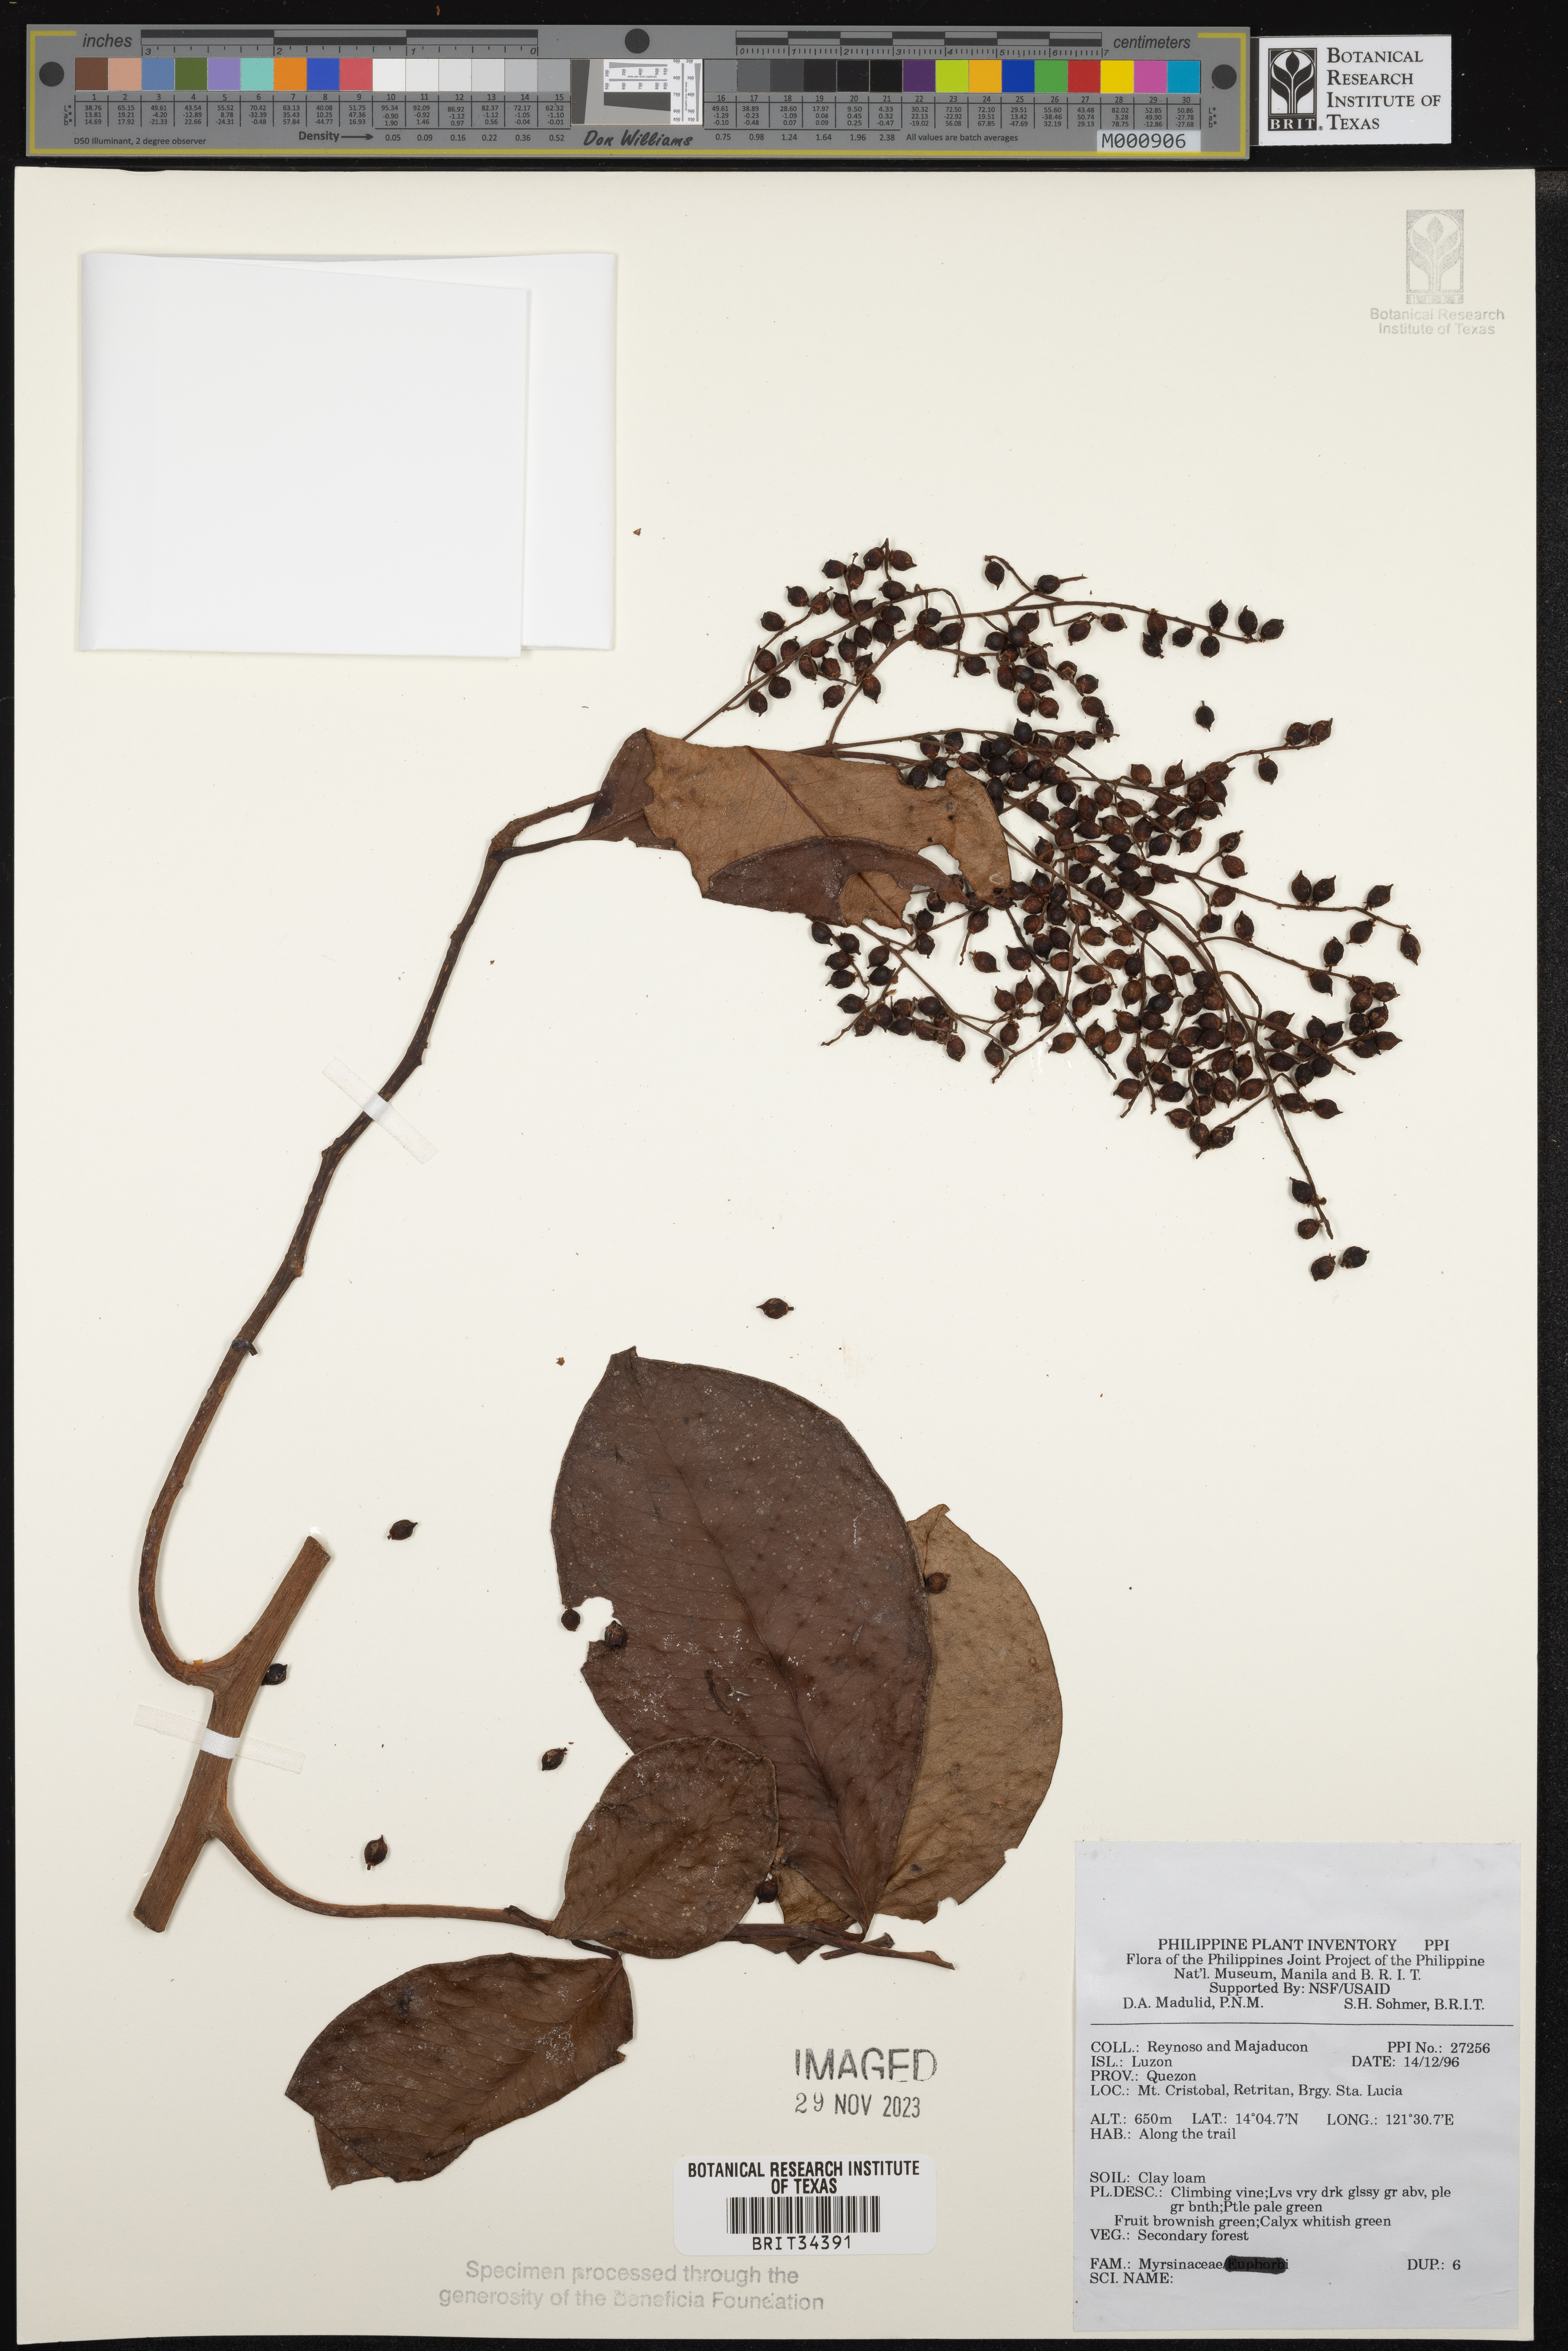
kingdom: Plantae
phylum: Tracheophyta
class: Magnoliopsida
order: Ericales
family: Primulaceae
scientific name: Primulaceae
